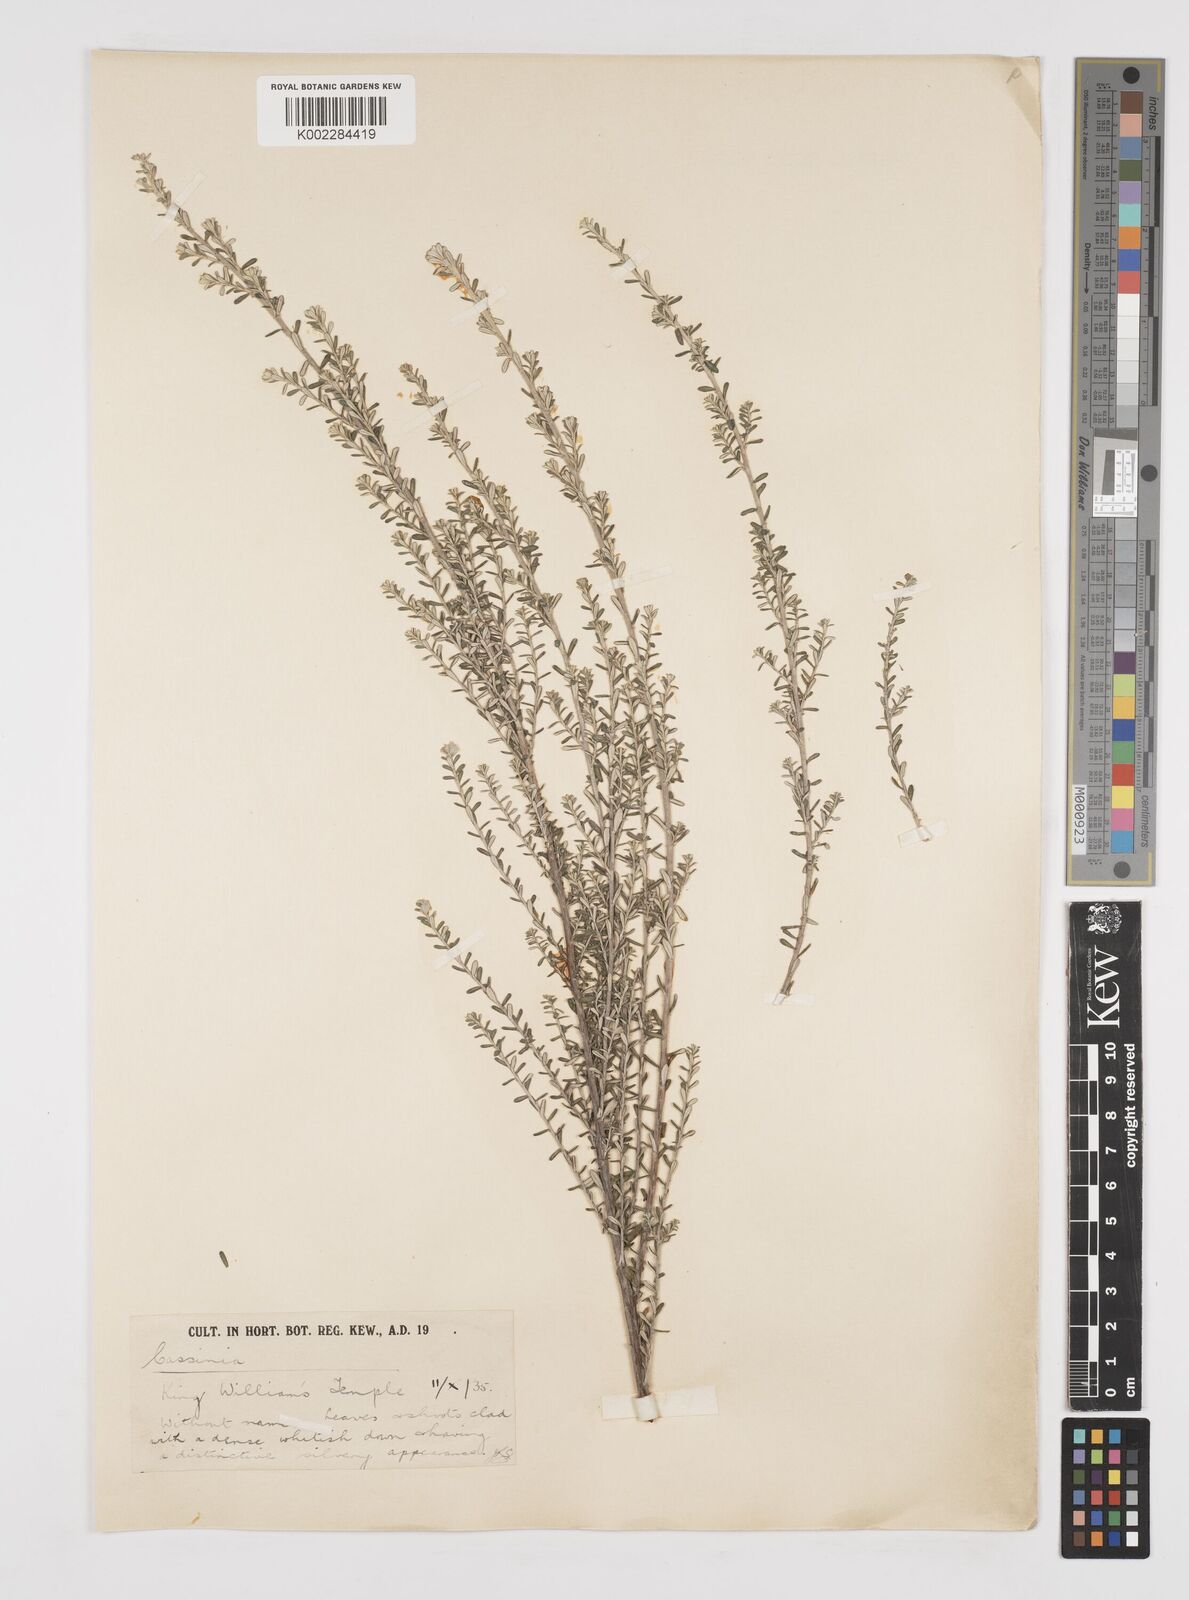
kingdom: Plantae
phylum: Tracheophyta
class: Magnoliopsida
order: Asterales
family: Asteraceae
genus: Cassinia
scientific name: Cassinia
